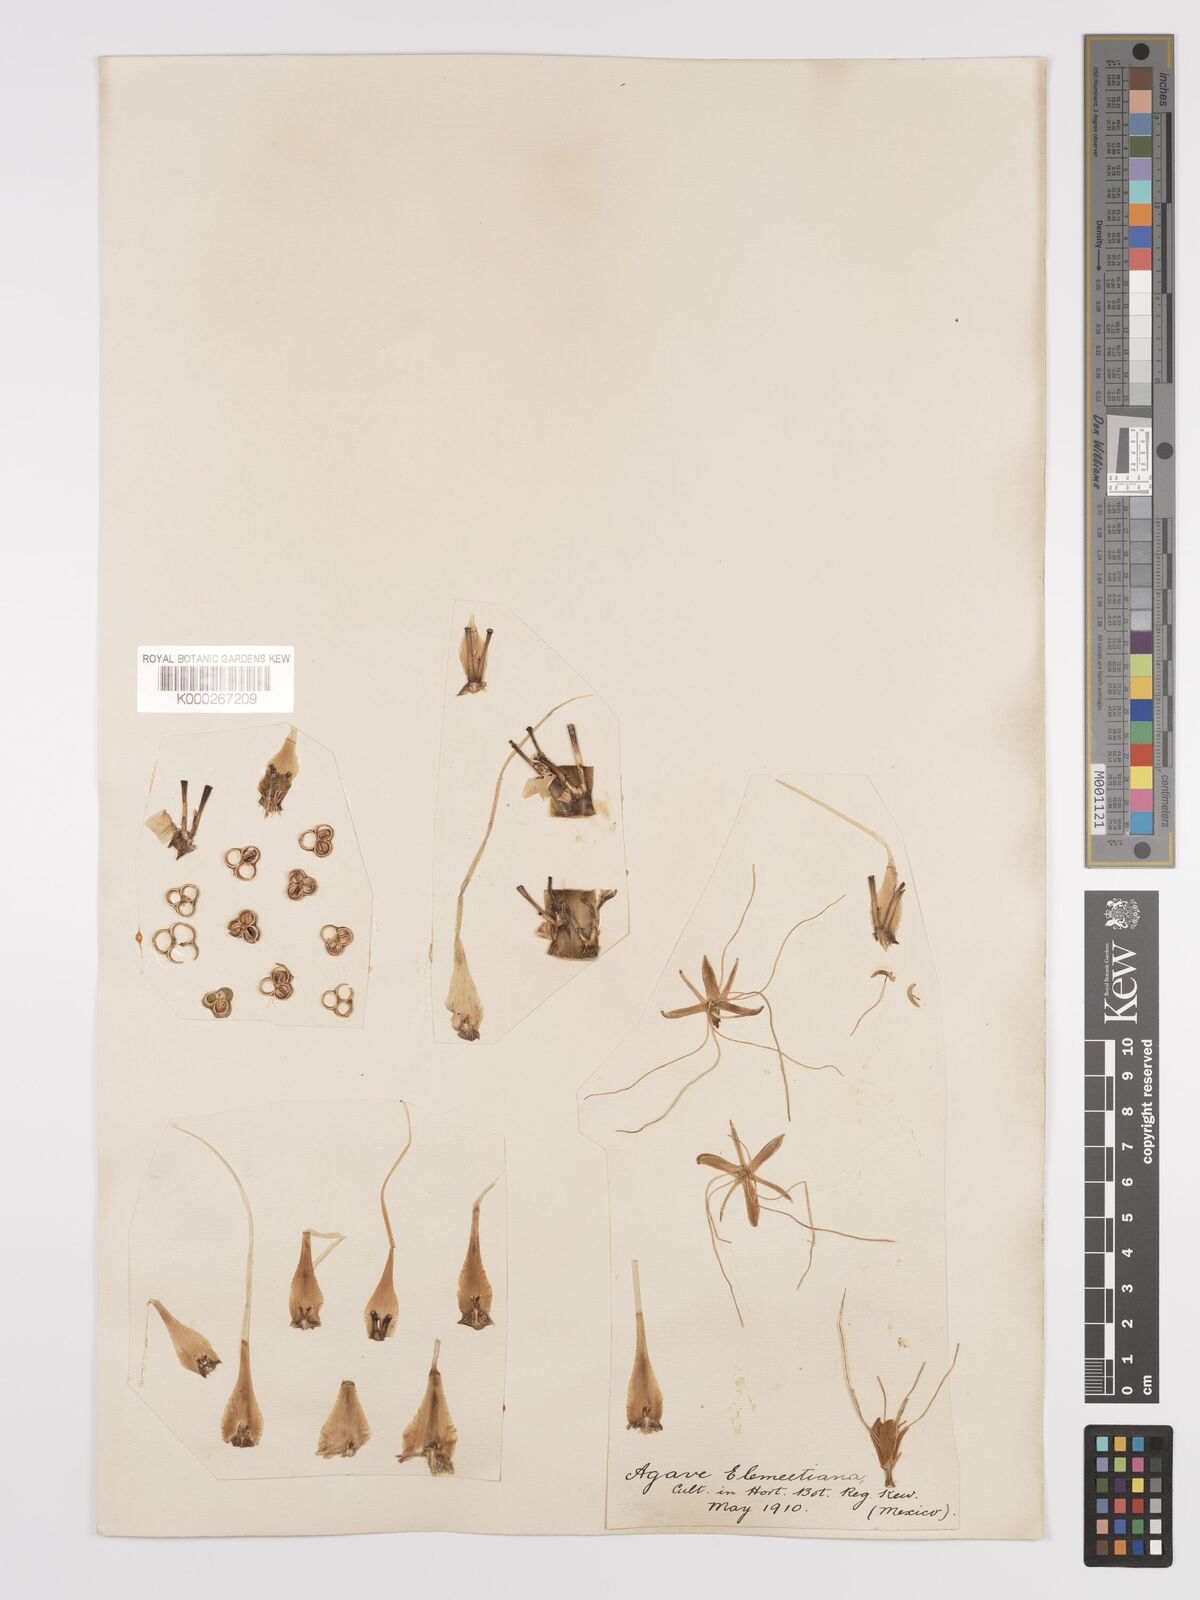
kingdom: Plantae
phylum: Tracheophyta
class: Liliopsida
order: Asparagales
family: Asparagaceae
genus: Agave
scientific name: Agave
